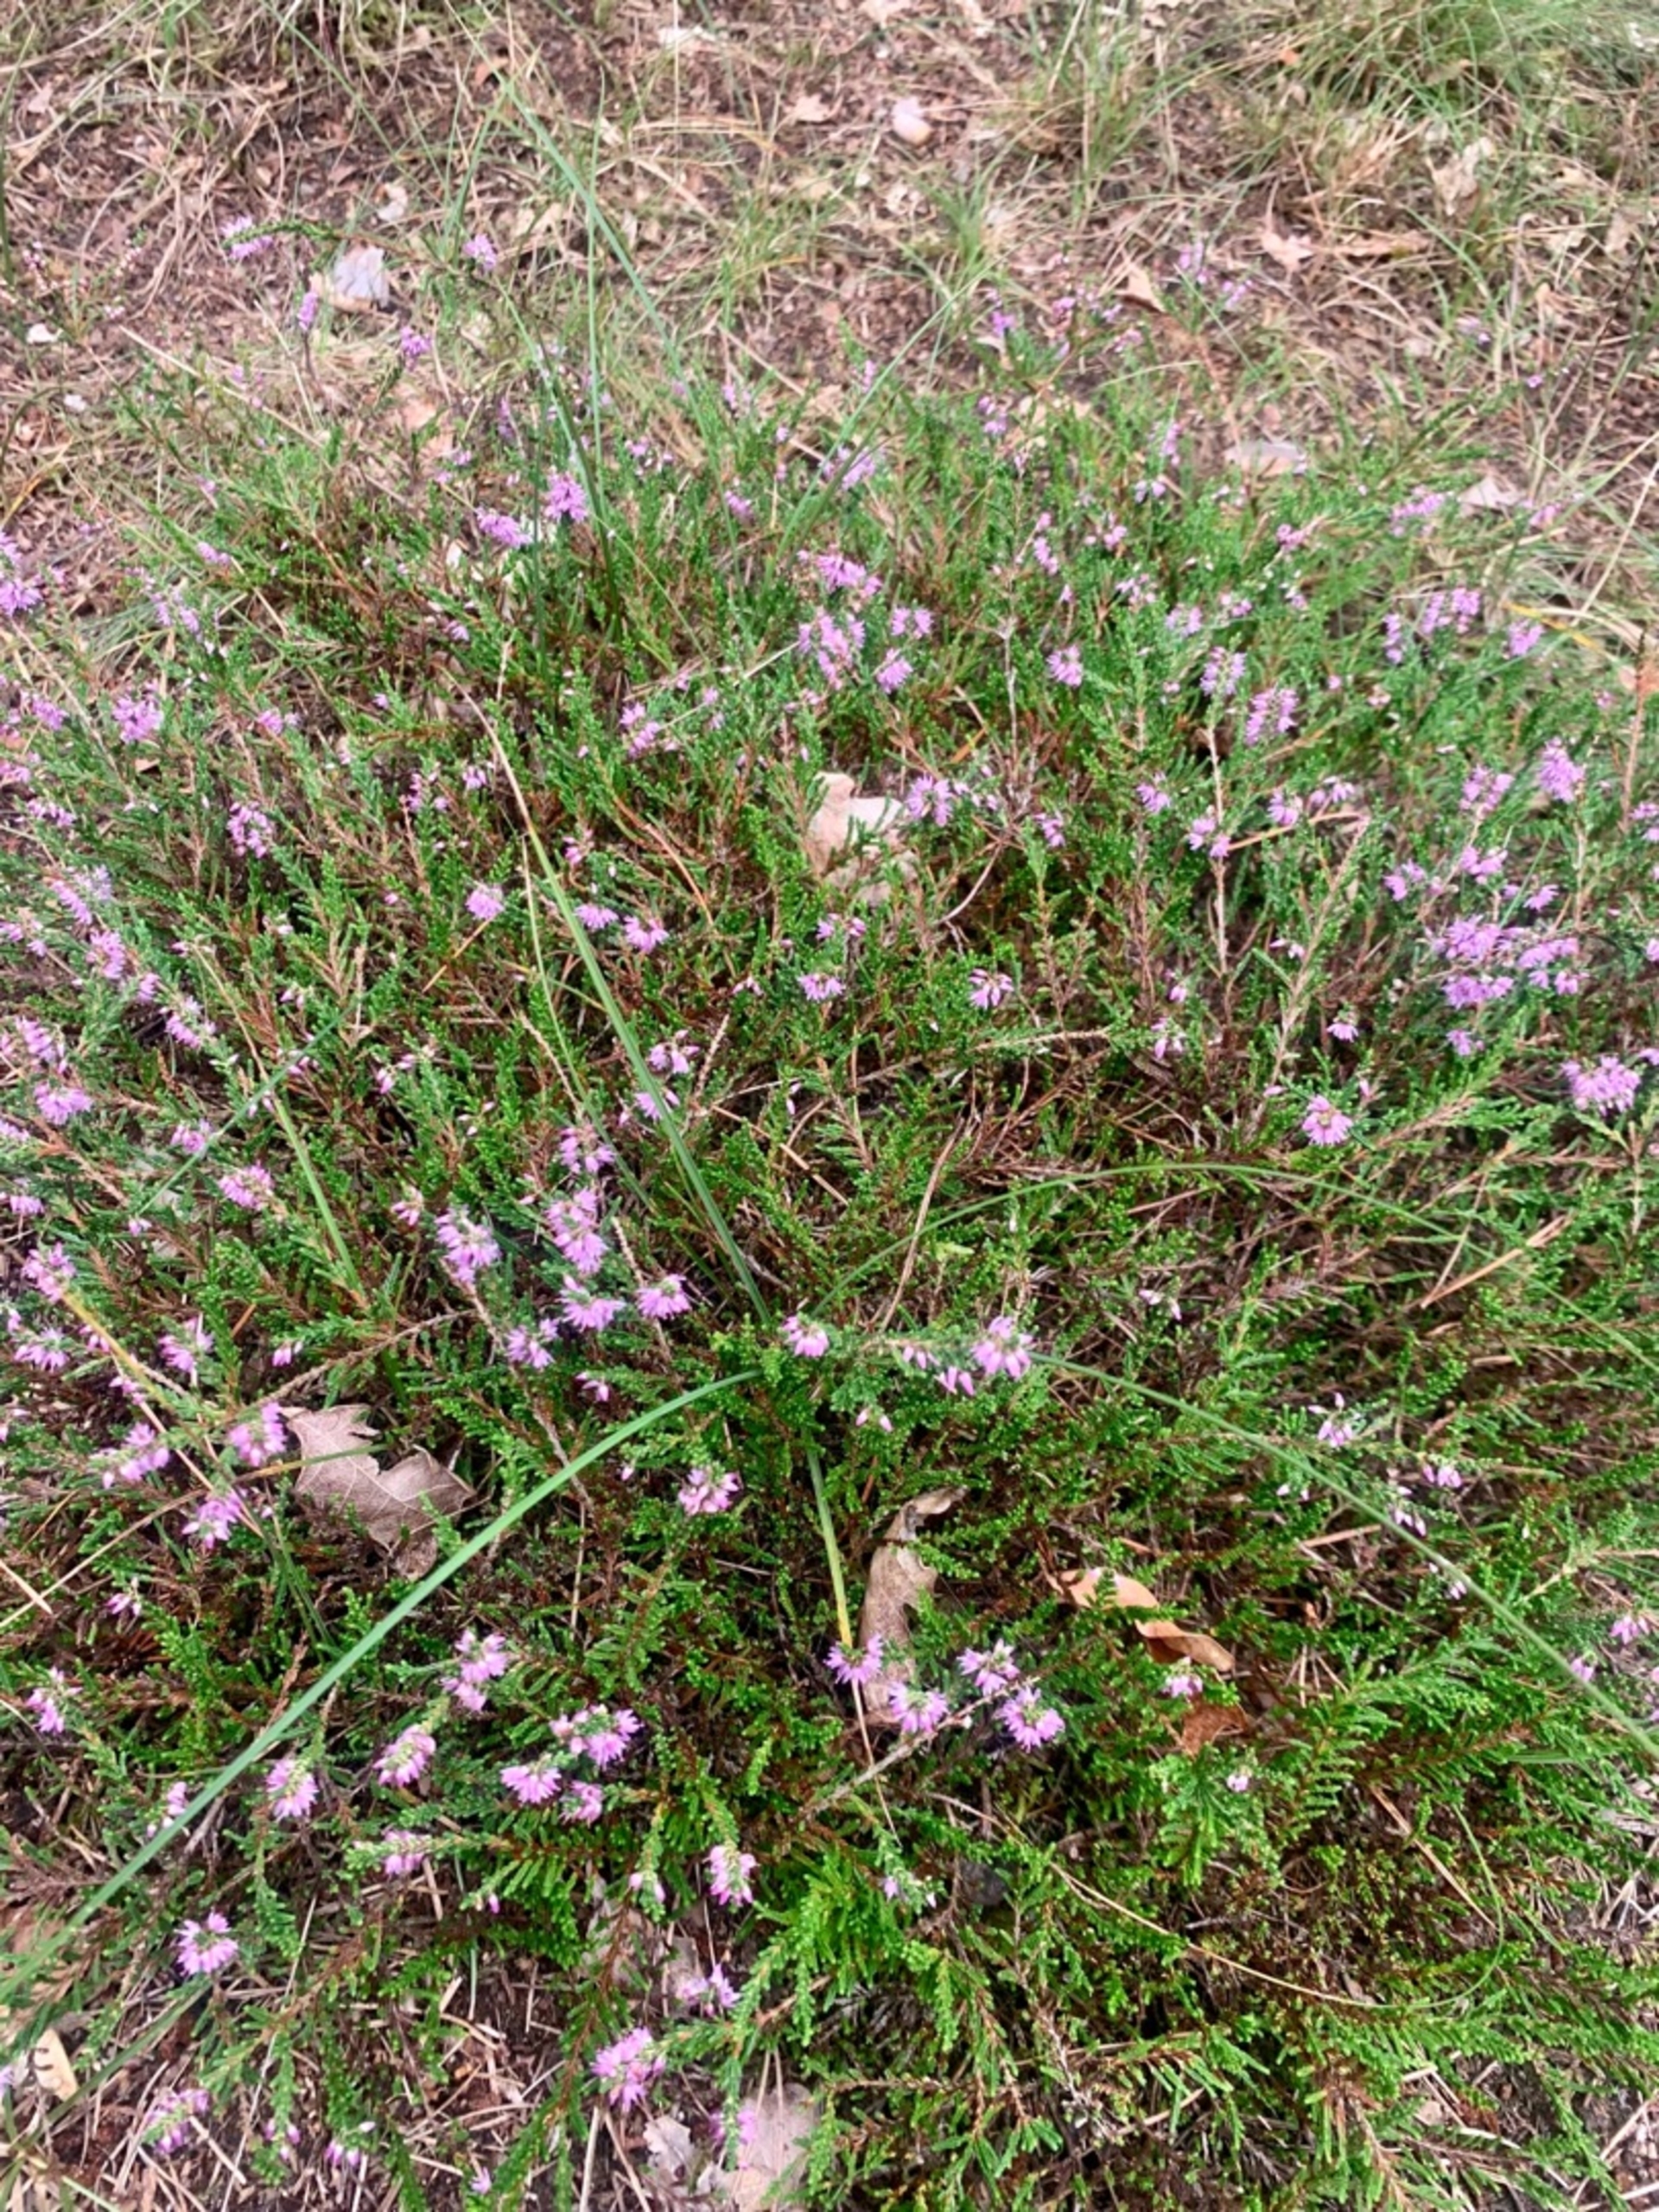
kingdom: Plantae
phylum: Tracheophyta
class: Magnoliopsida
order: Ericales
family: Ericaceae
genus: Calluna
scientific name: Calluna vulgaris
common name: Hedelyng
